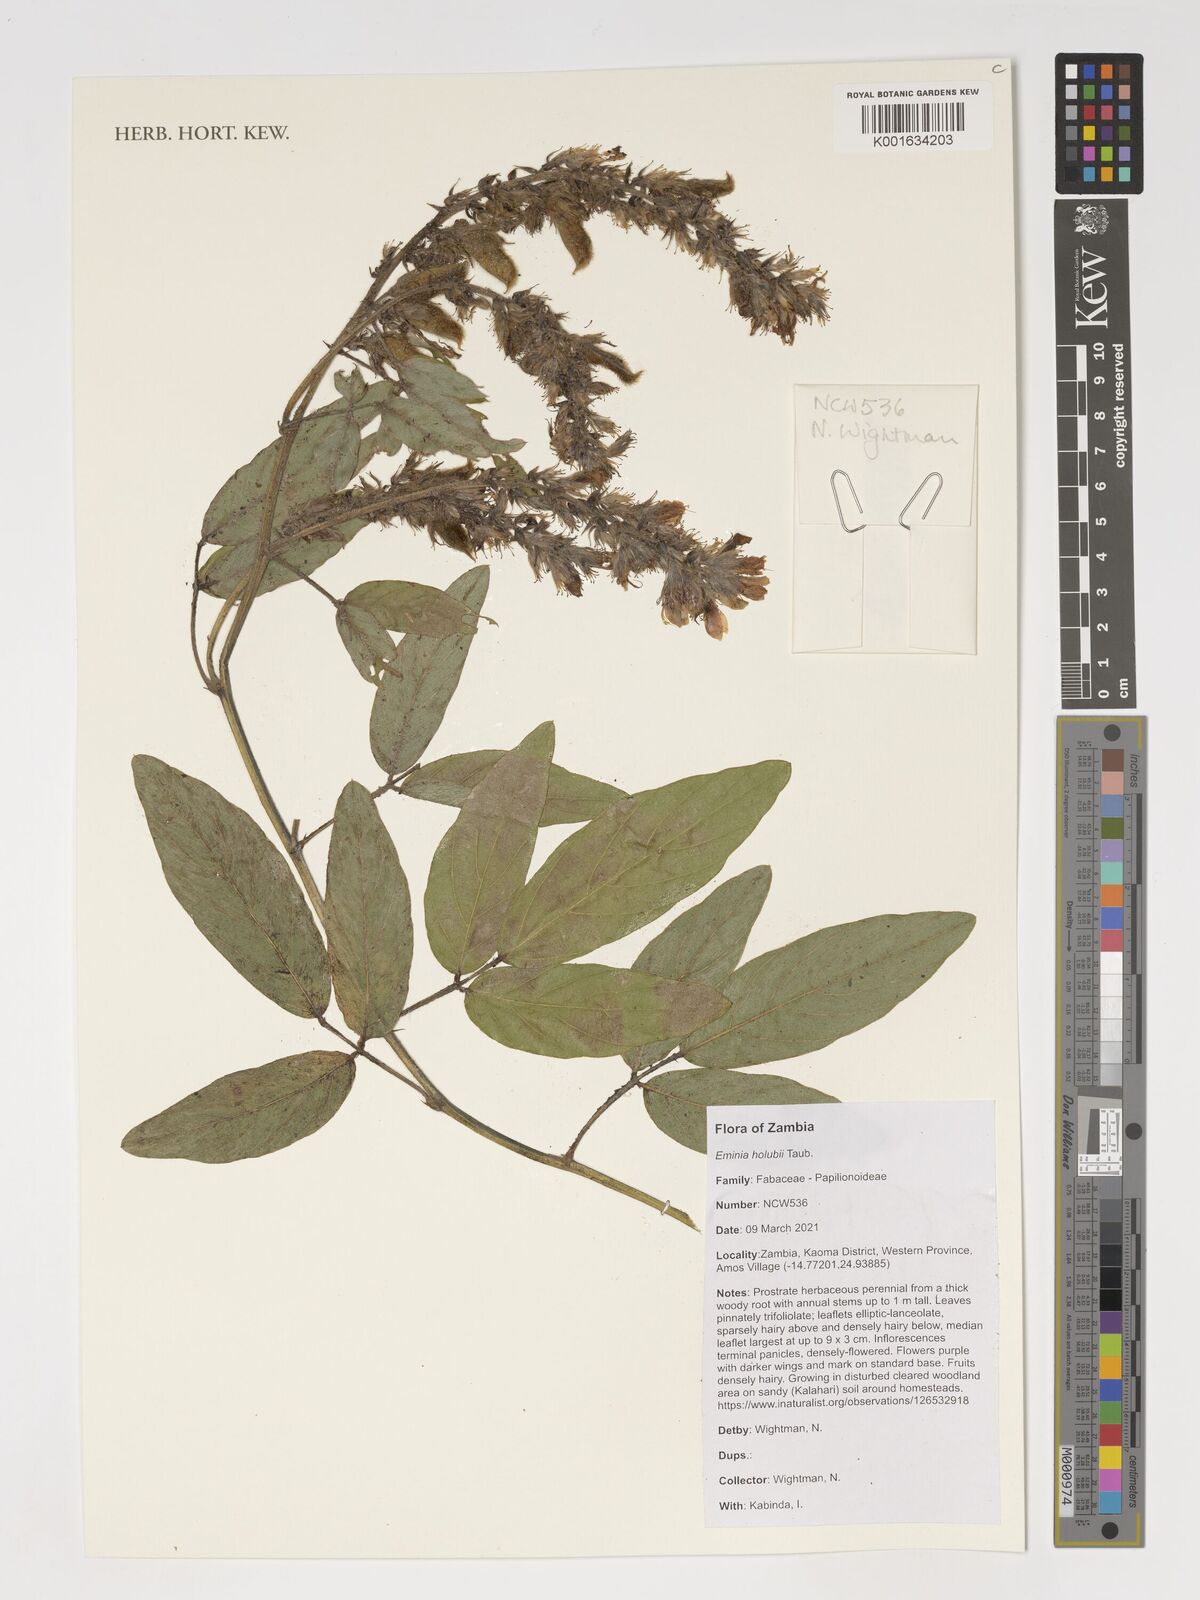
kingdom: Plantae
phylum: Tracheophyta
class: Magnoliopsida
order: Fabales
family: Fabaceae
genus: Eminia
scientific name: Eminia holubii
